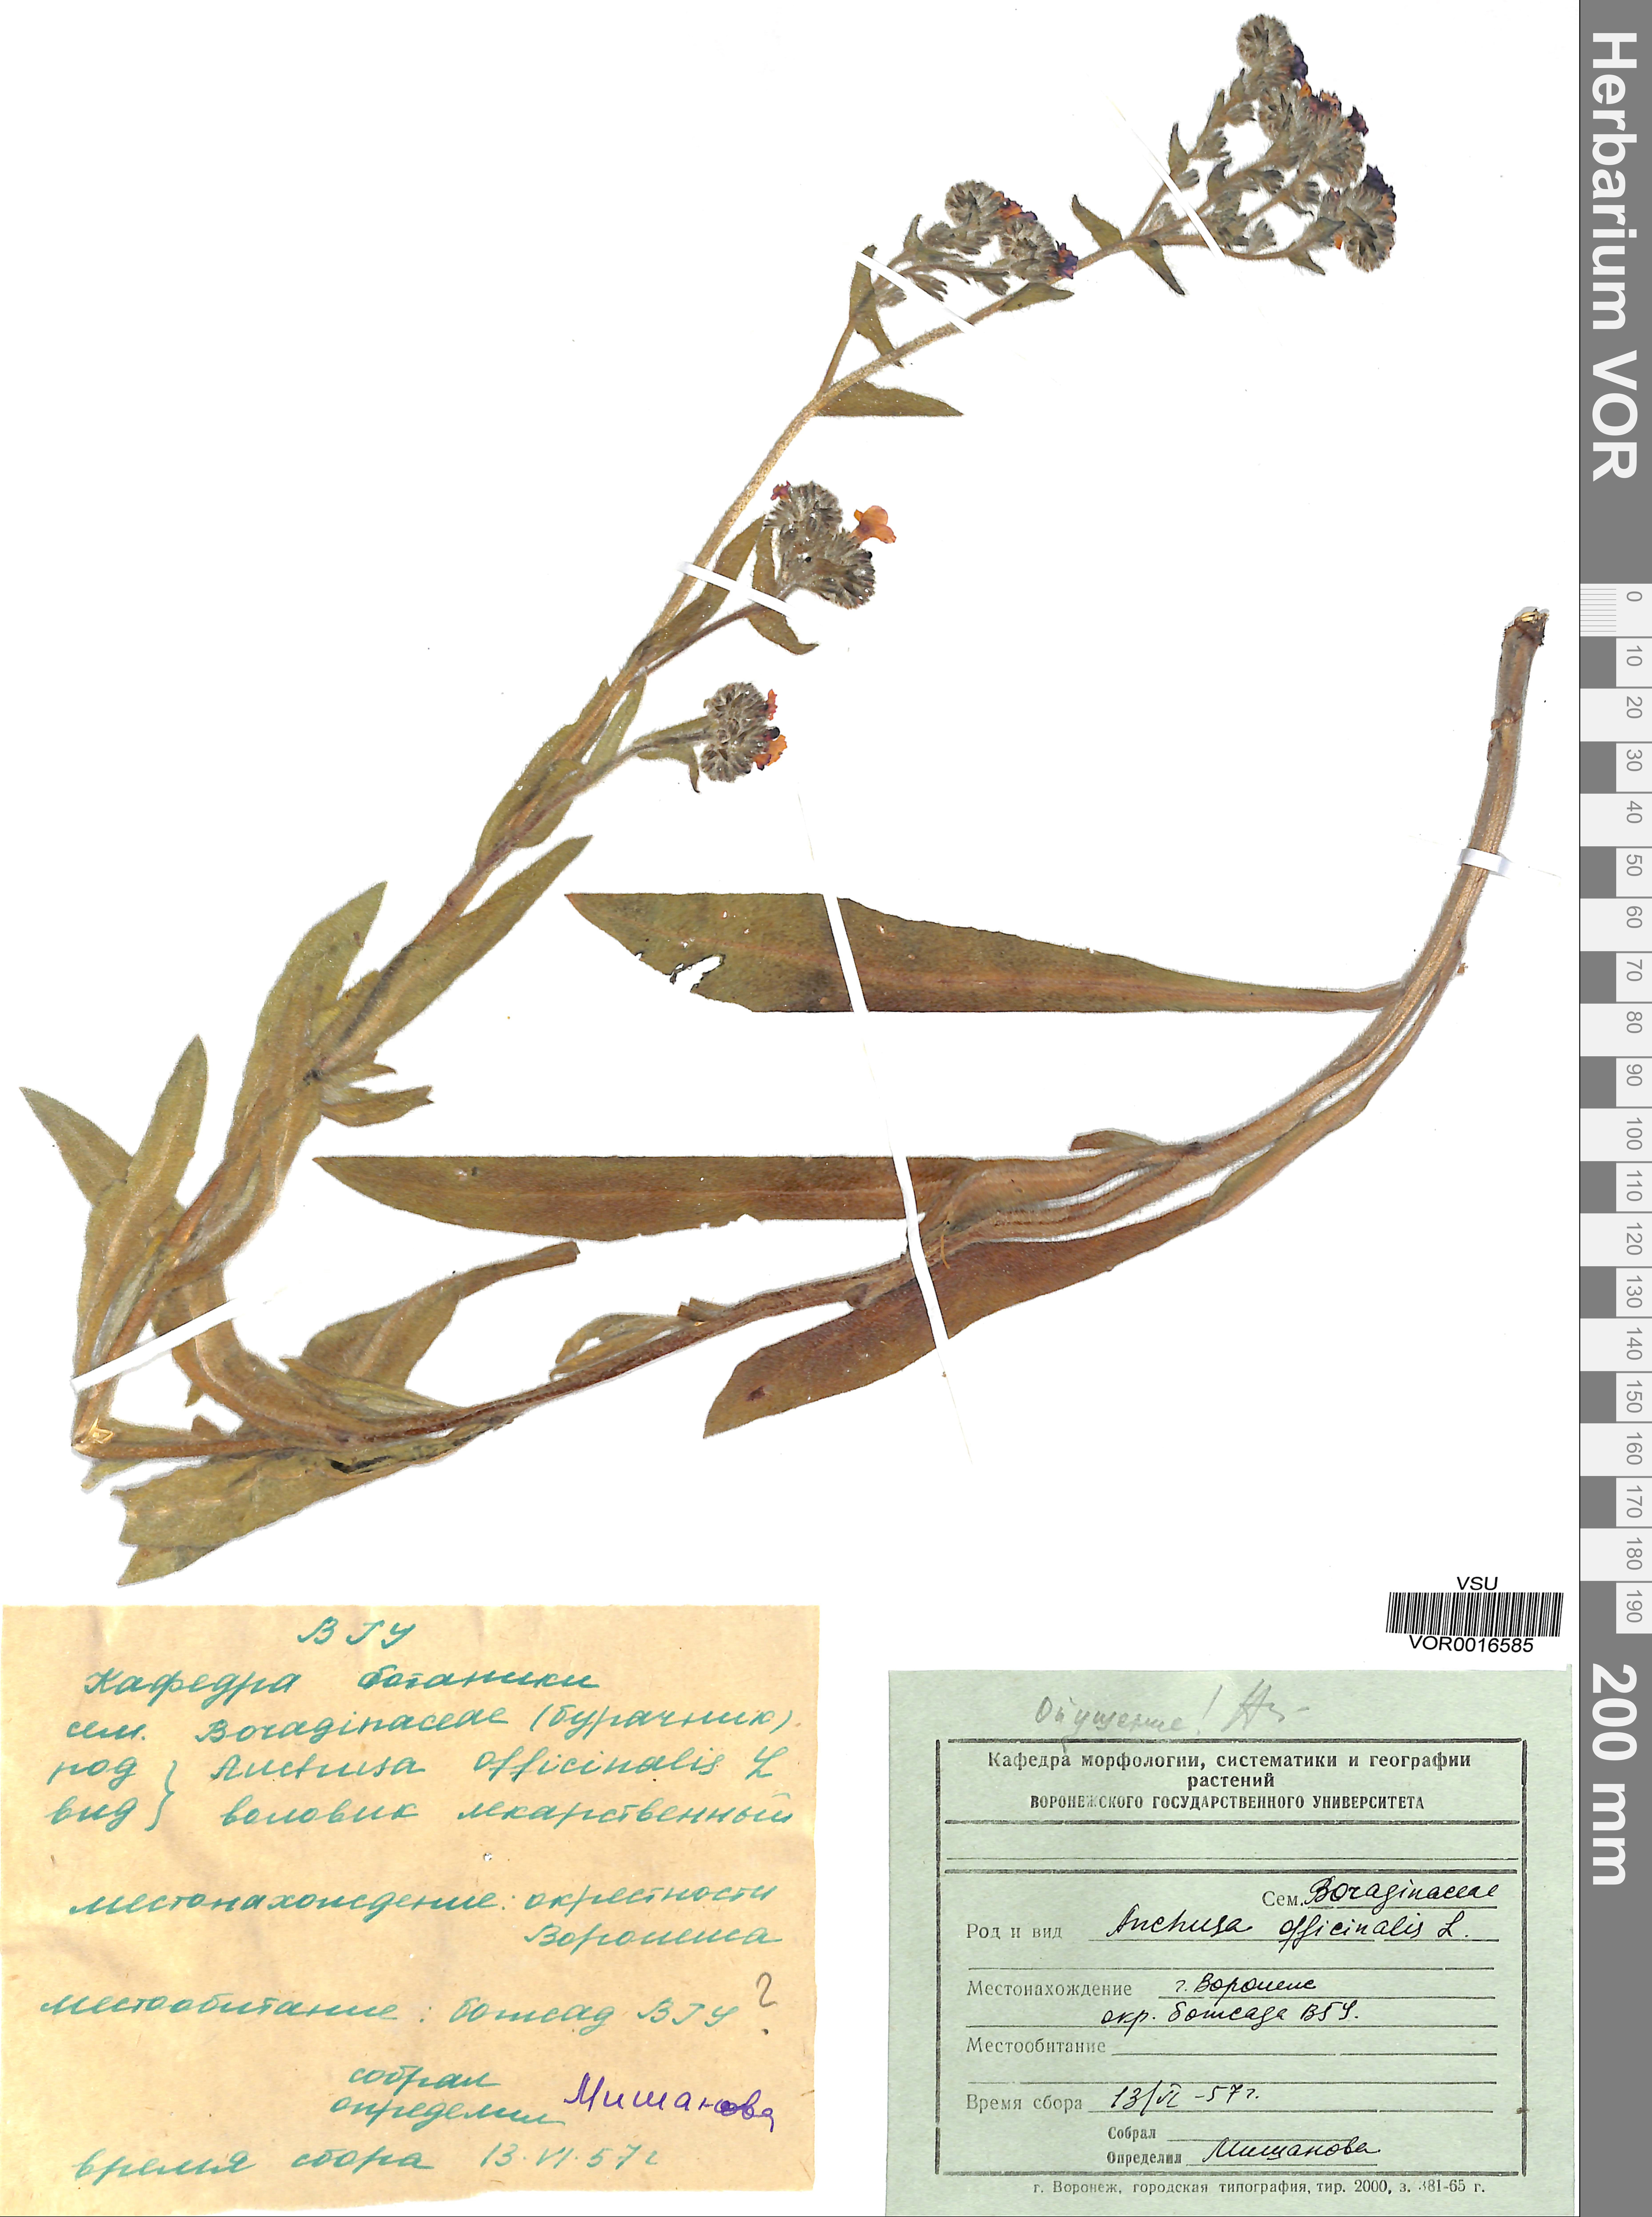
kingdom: Plantae
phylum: Tracheophyta
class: Magnoliopsida
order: Boraginales
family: Boraginaceae
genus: Anchusa
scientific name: Anchusa officinalis
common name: Alkanet
